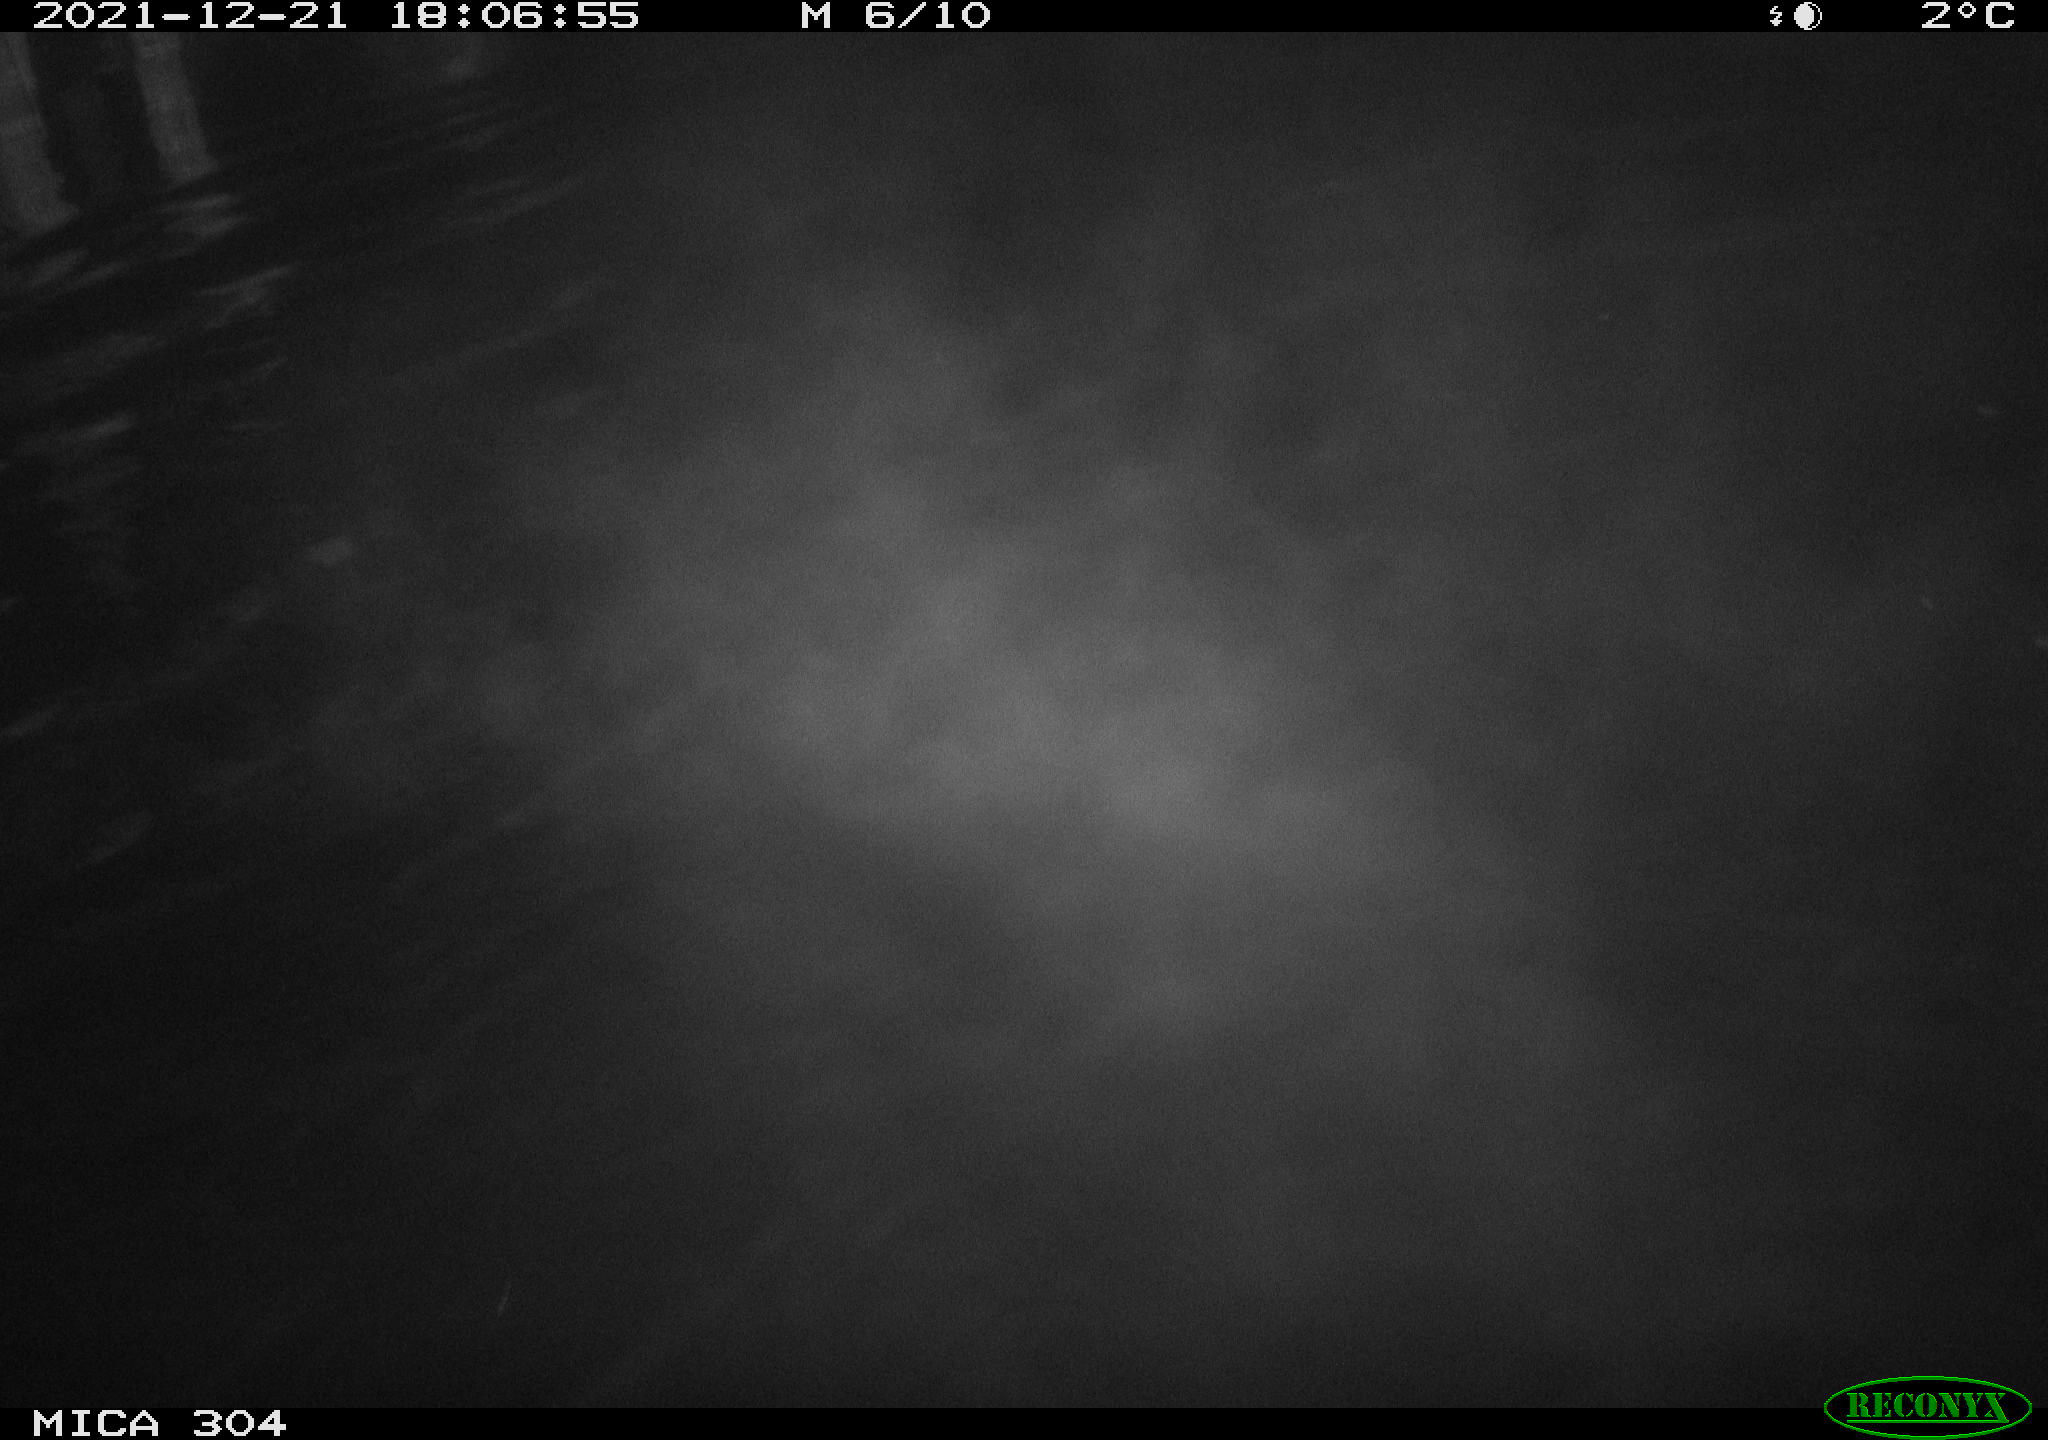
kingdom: Animalia
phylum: Chordata
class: Aves
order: Anseriformes
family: Anatidae
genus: Anas
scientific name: Anas platyrhynchos
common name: Mallard
